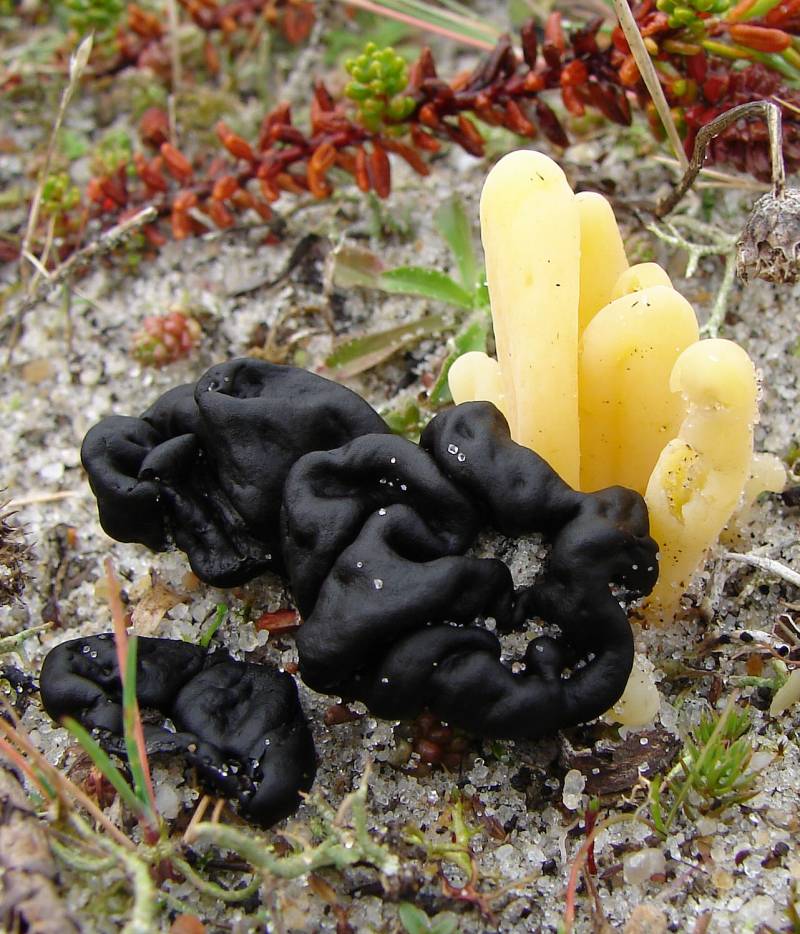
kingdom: Fungi
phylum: Ascomycota
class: Geoglossomycetes
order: Geoglossales
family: Geoglossaceae
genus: Sabuloglossum
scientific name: Sabuloglossum arenarium
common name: klit-jordtunge
